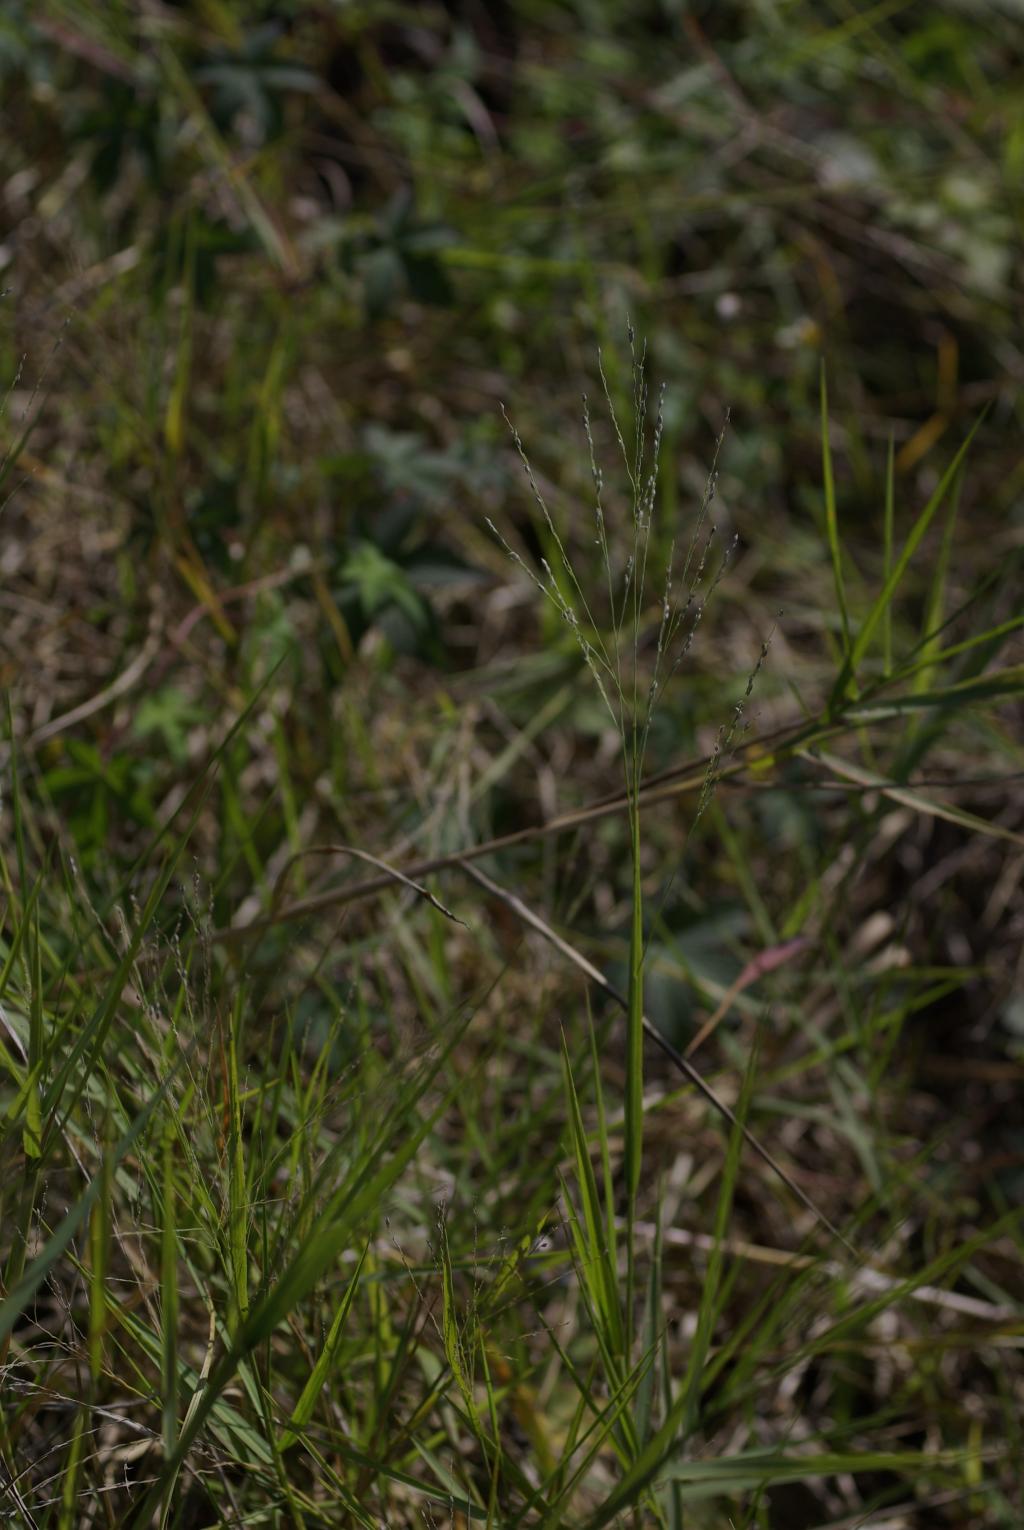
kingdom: Plantae
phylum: Tracheophyta
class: Liliopsida
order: Poales
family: Poaceae
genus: Panicum
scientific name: Panicum repens
